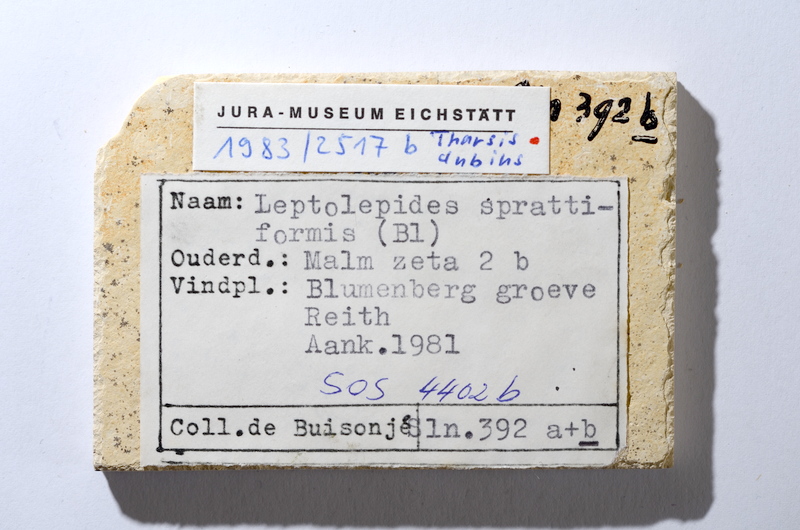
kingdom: Animalia
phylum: Chordata
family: Ascalaboidae
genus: Tharsis
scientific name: Tharsis dubius
